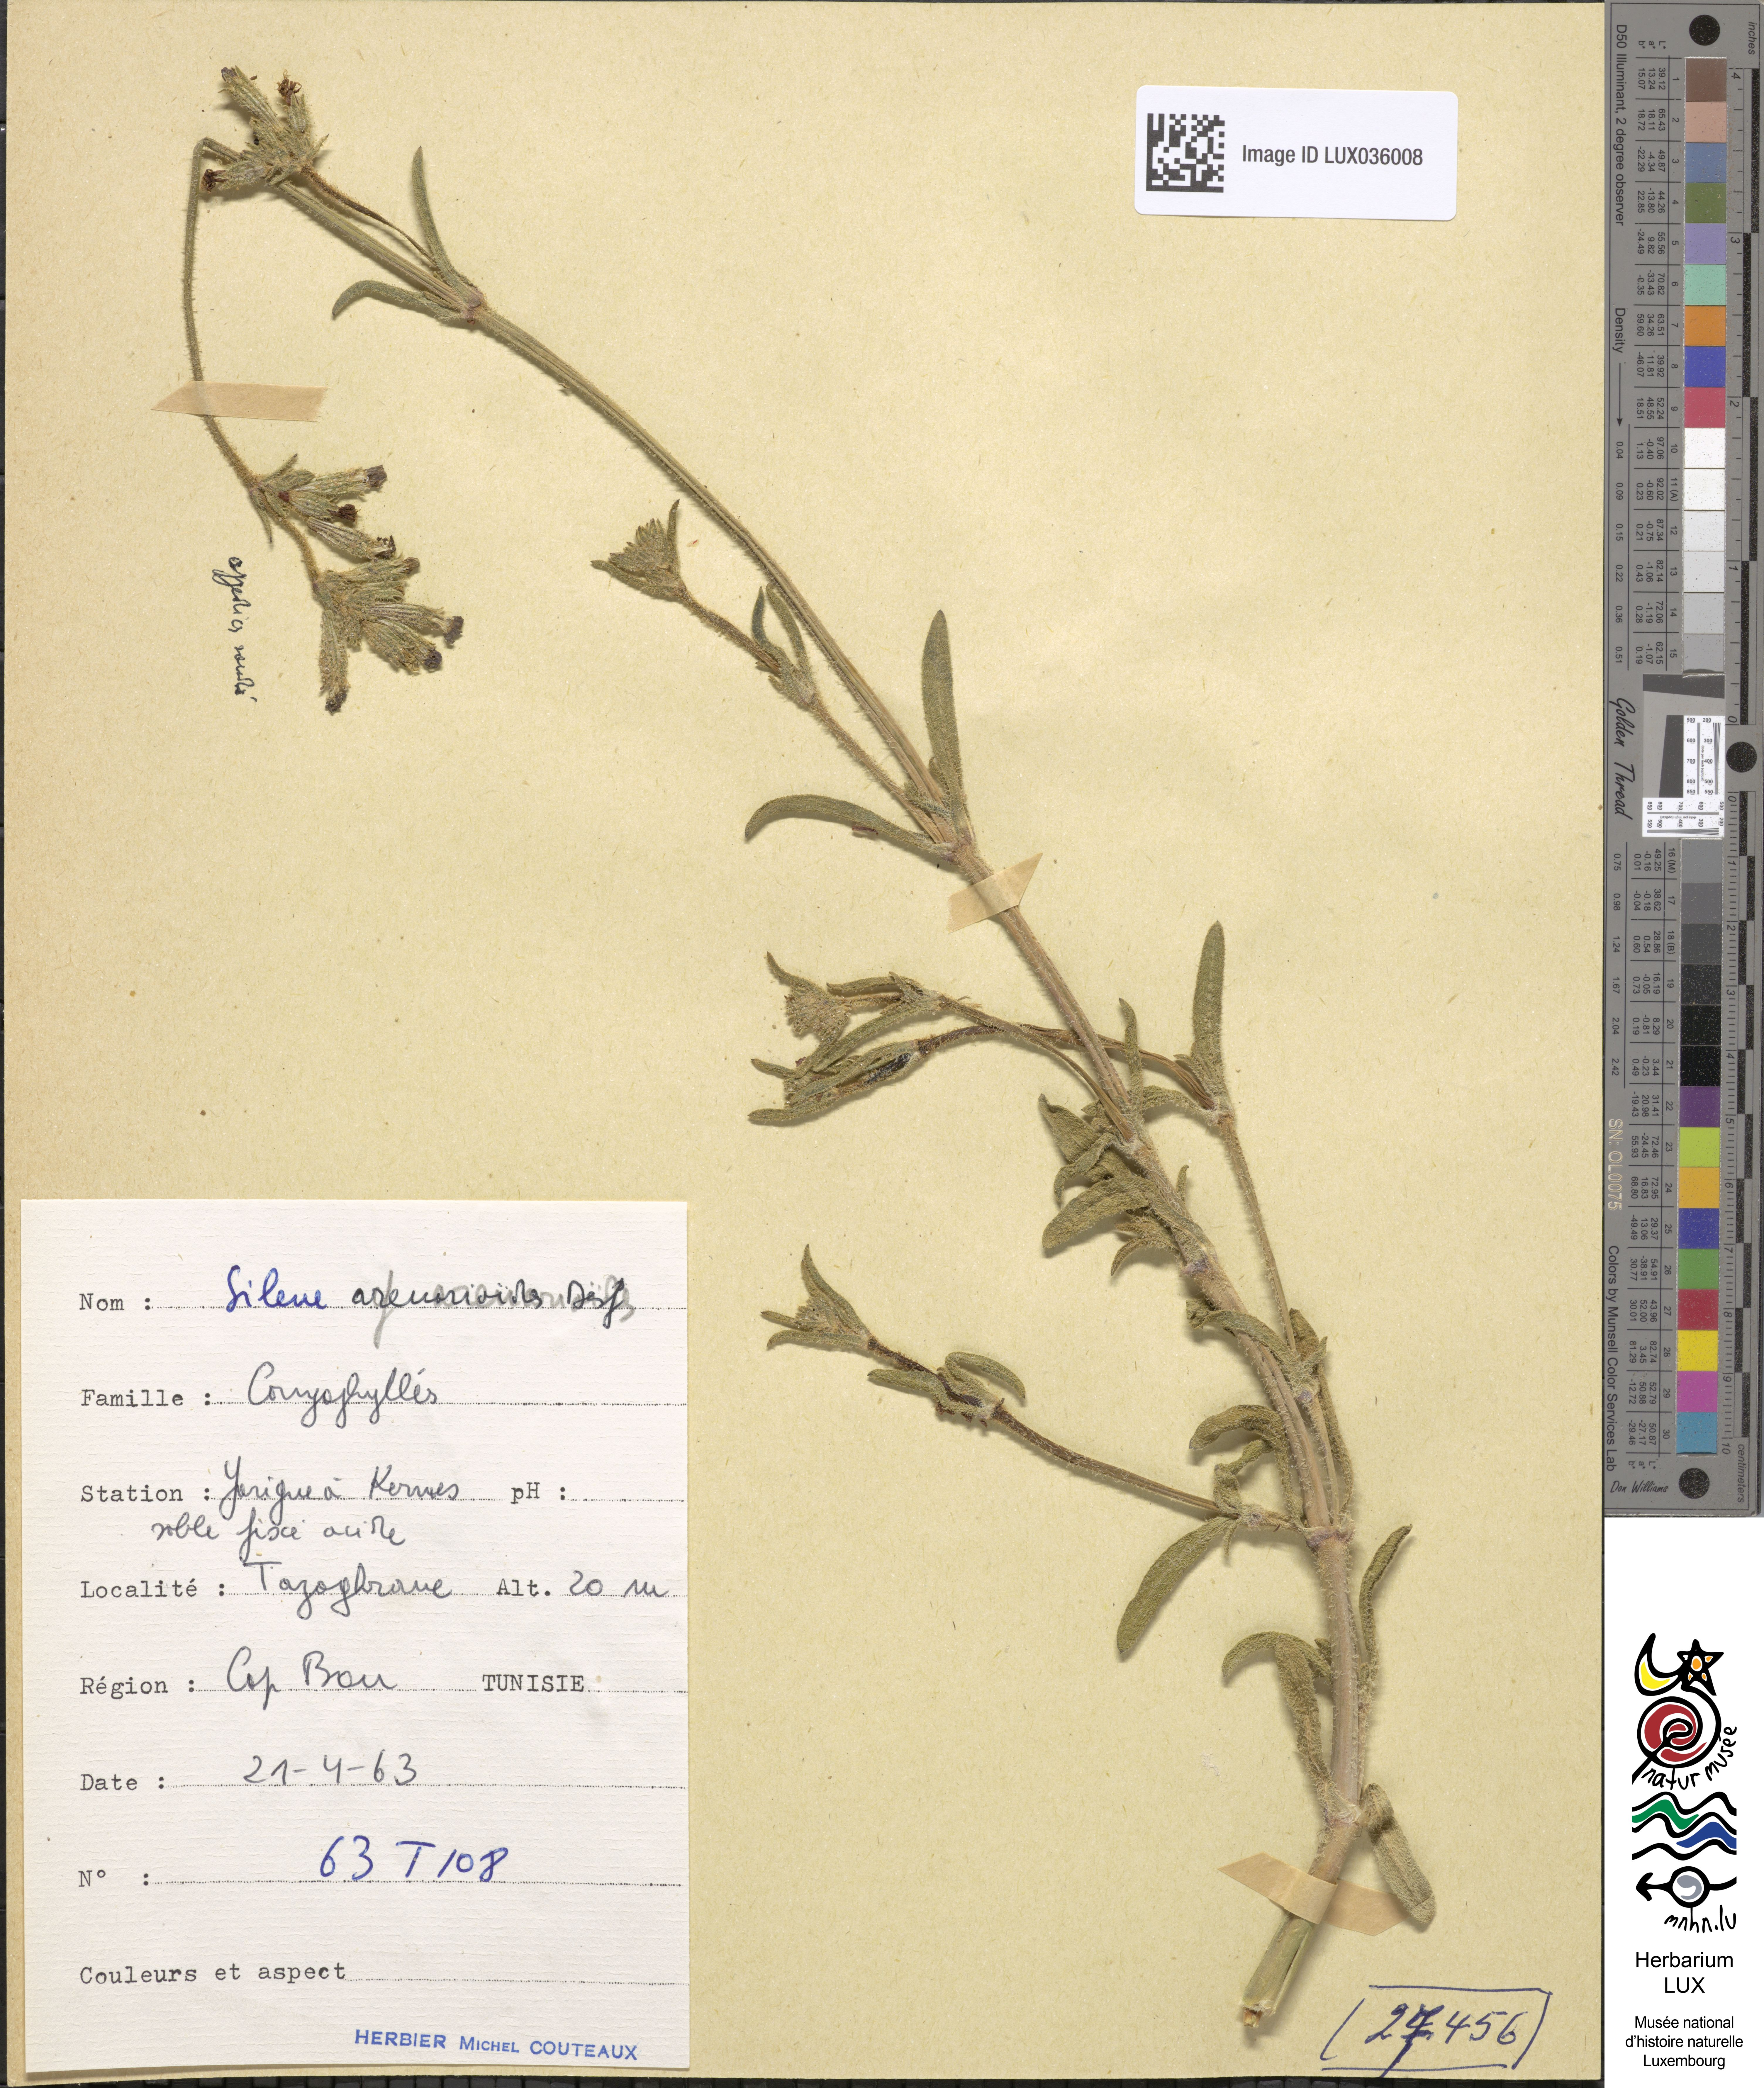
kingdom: Plantae
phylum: Tracheophyta
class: Magnoliopsida
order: Caryophyllales
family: Caryophyllaceae
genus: Silene
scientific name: Silene arenarioides
